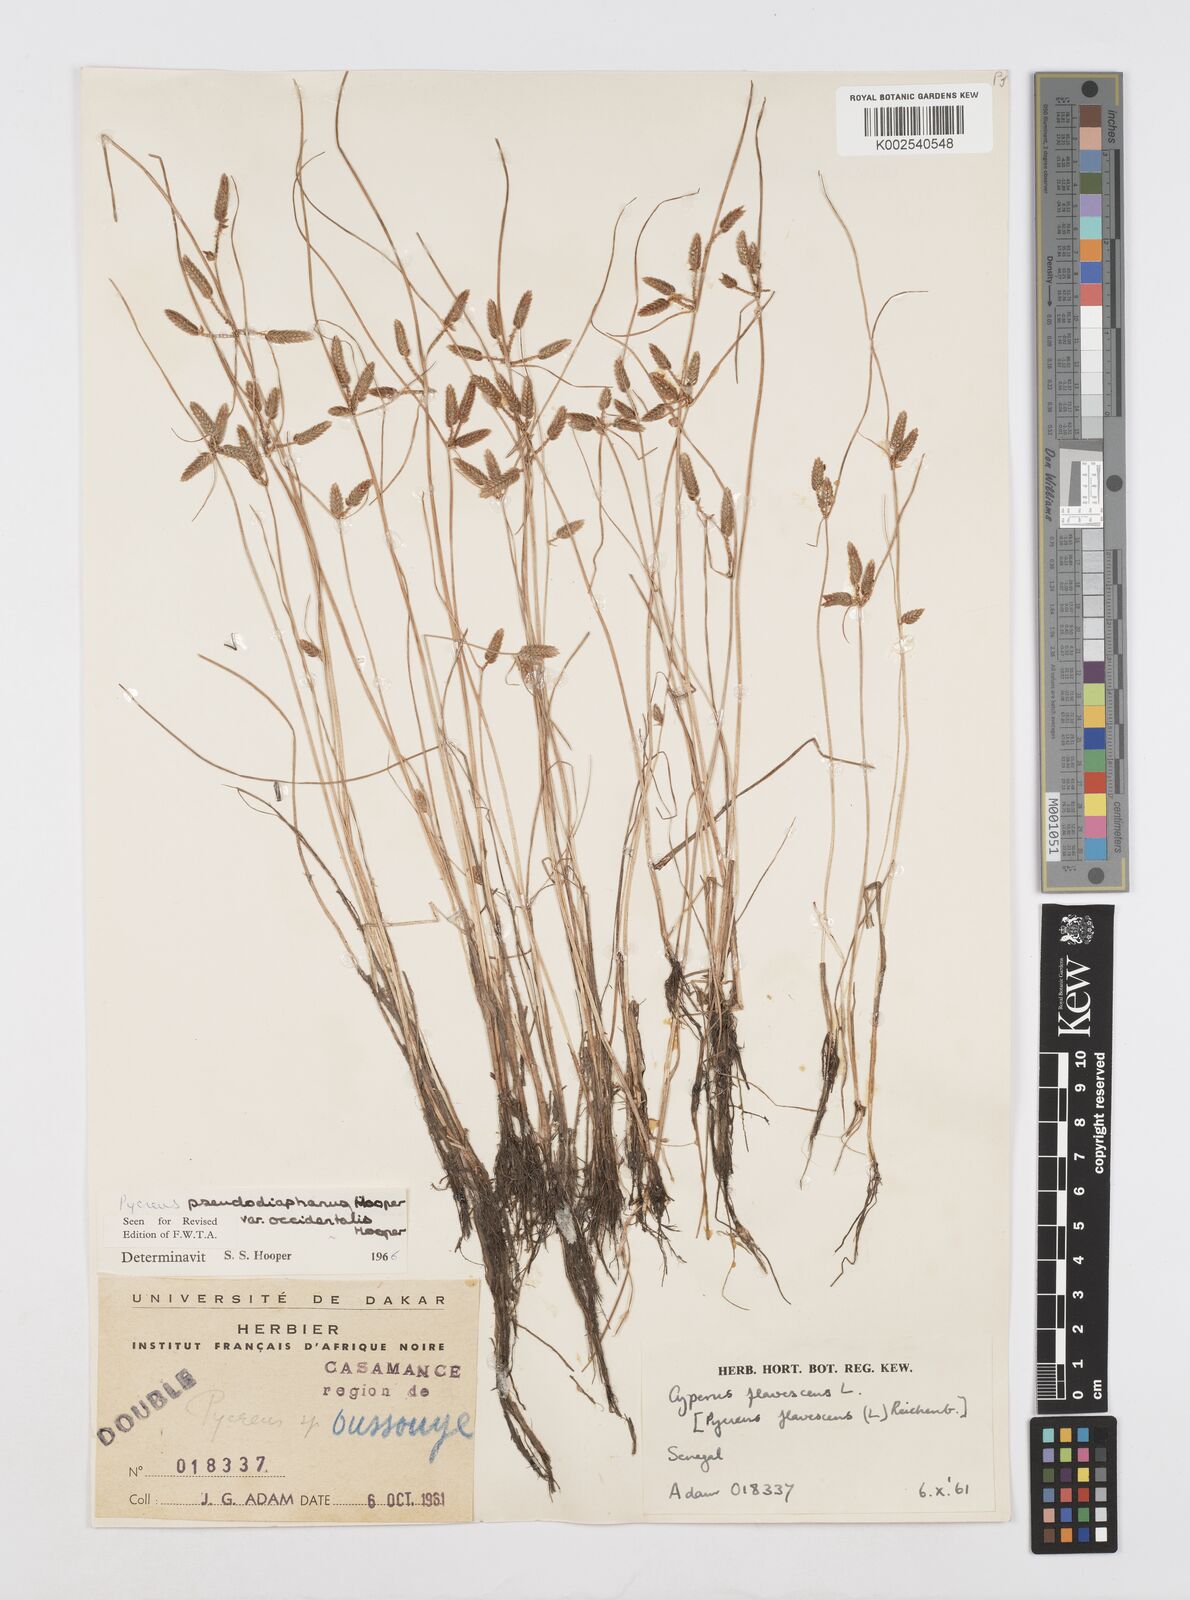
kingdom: Plantae
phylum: Tracheophyta
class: Liliopsida
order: Poales
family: Cyperaceae
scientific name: Cyperaceae
